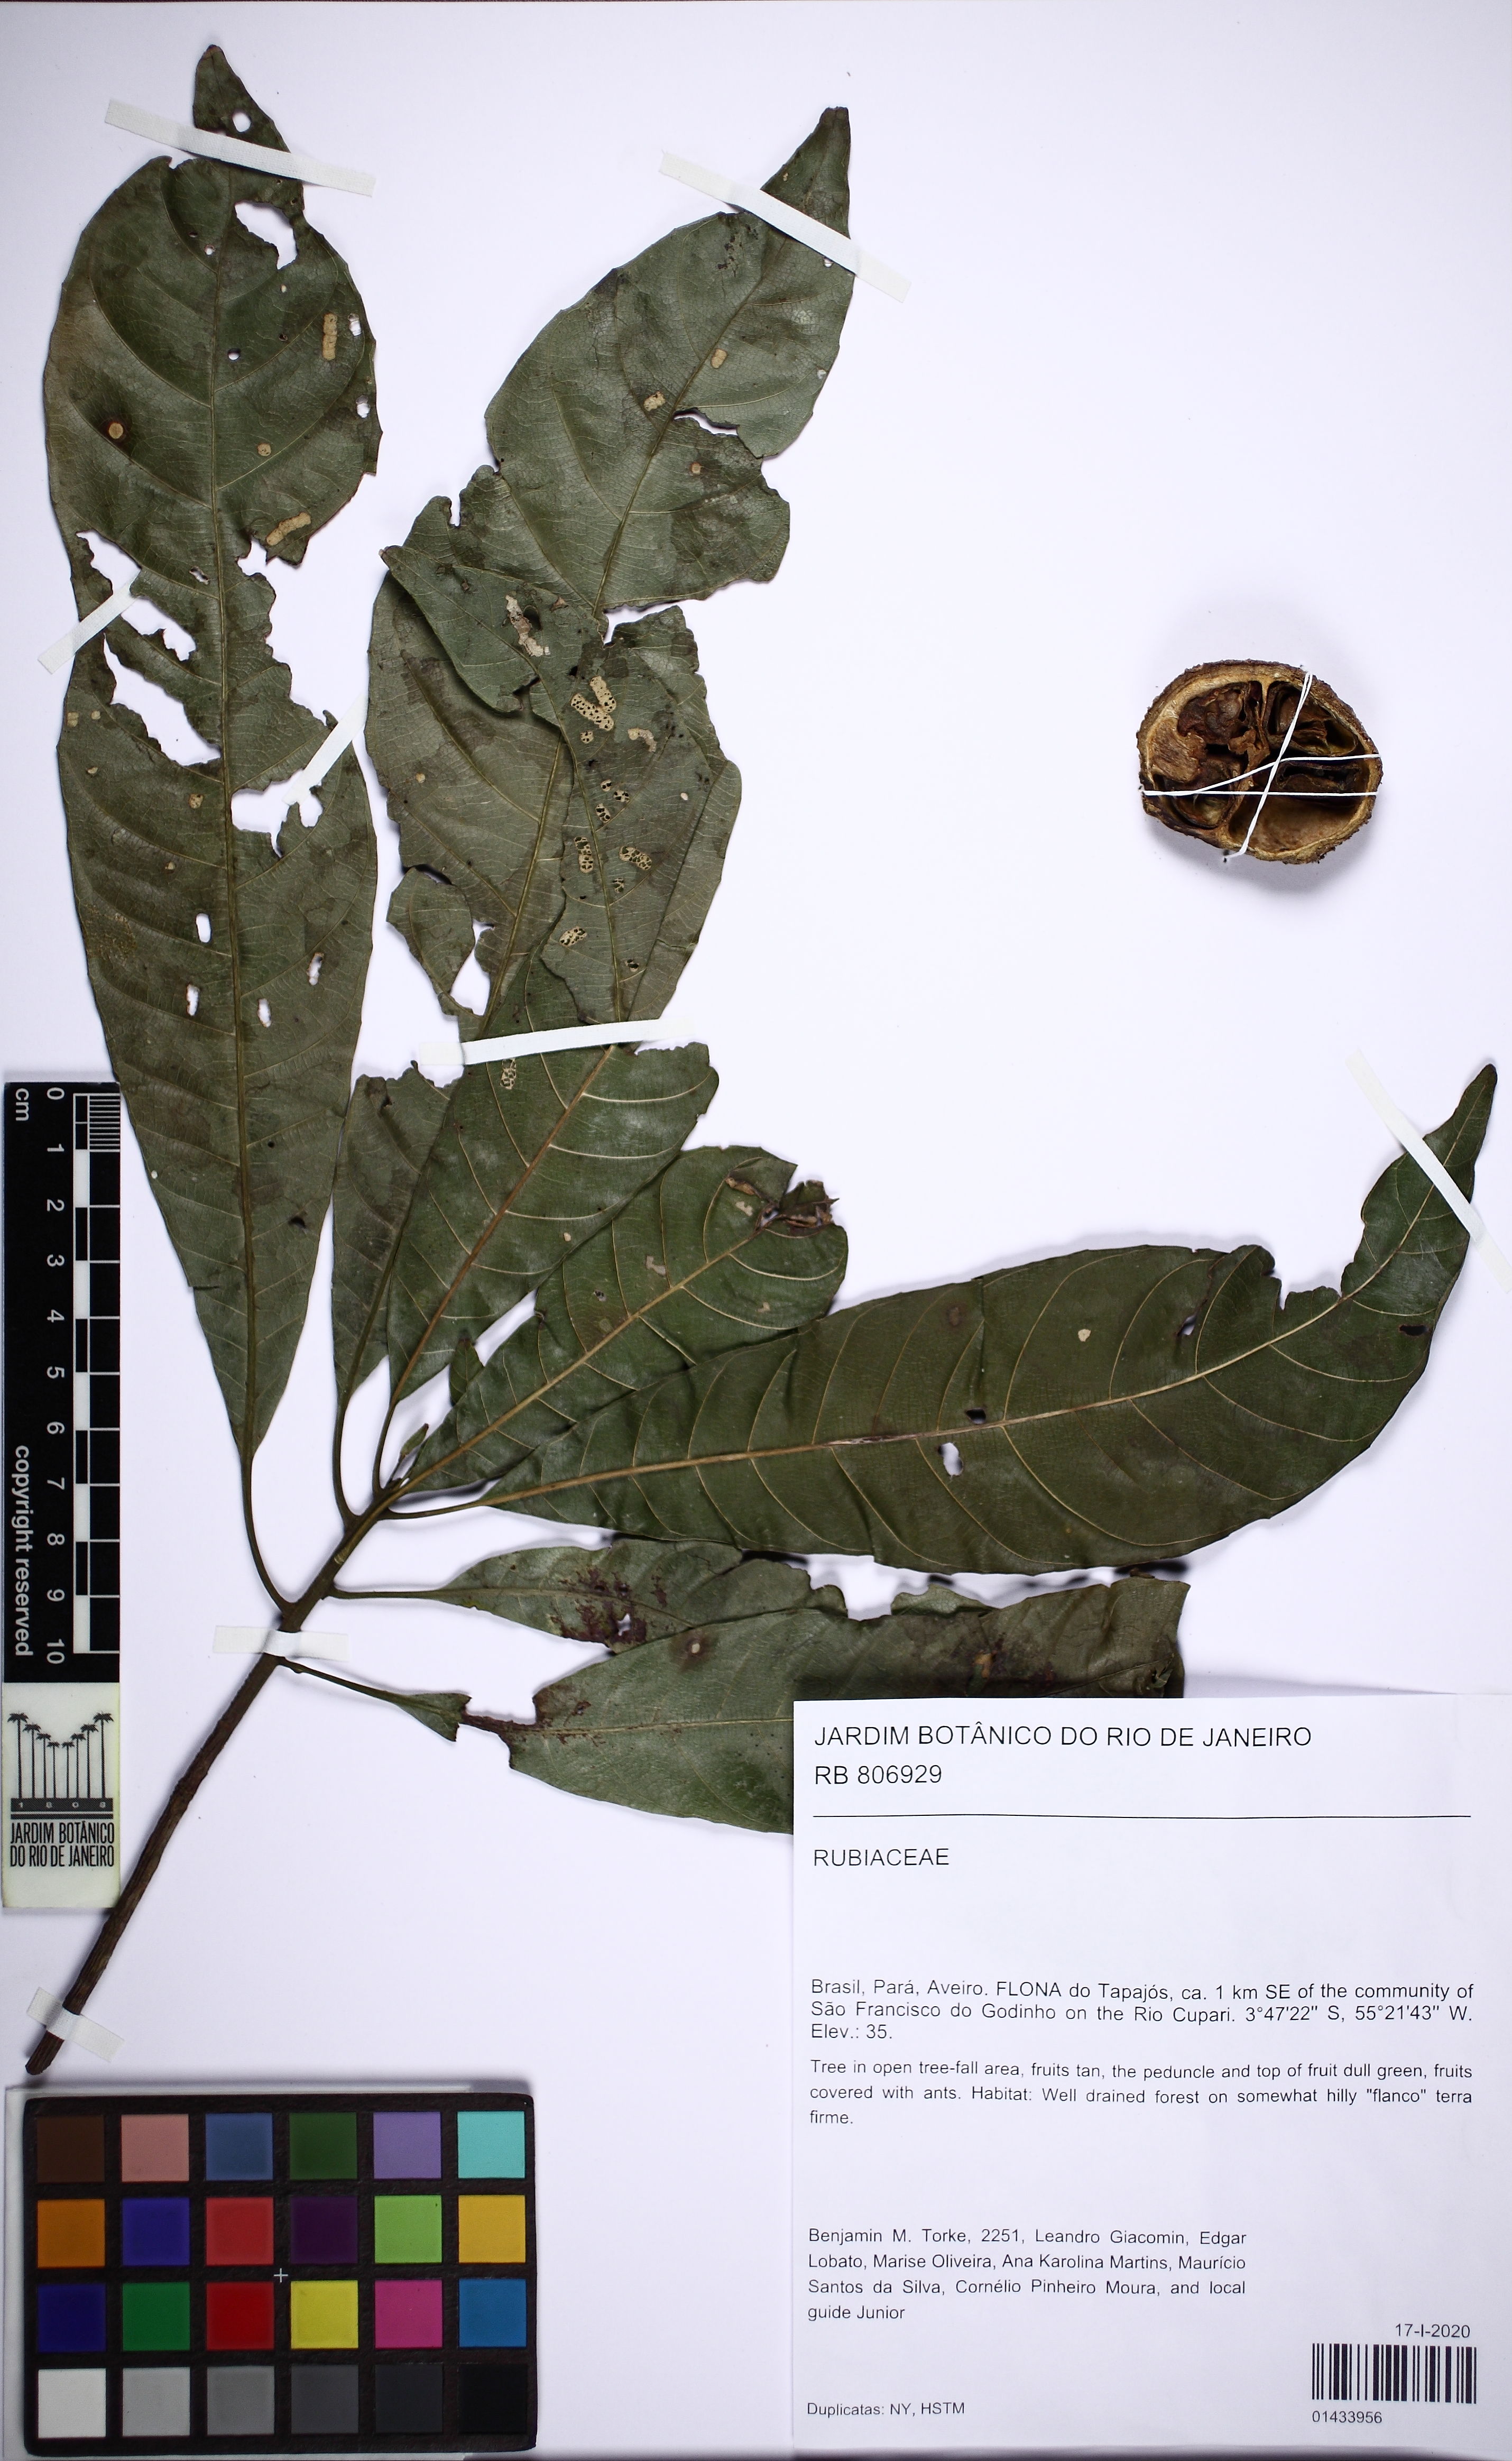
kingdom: Plantae
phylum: Tracheophyta
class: Magnoliopsida
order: Gentianales
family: Rubiaceae
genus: Alibertia
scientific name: Alibertia
